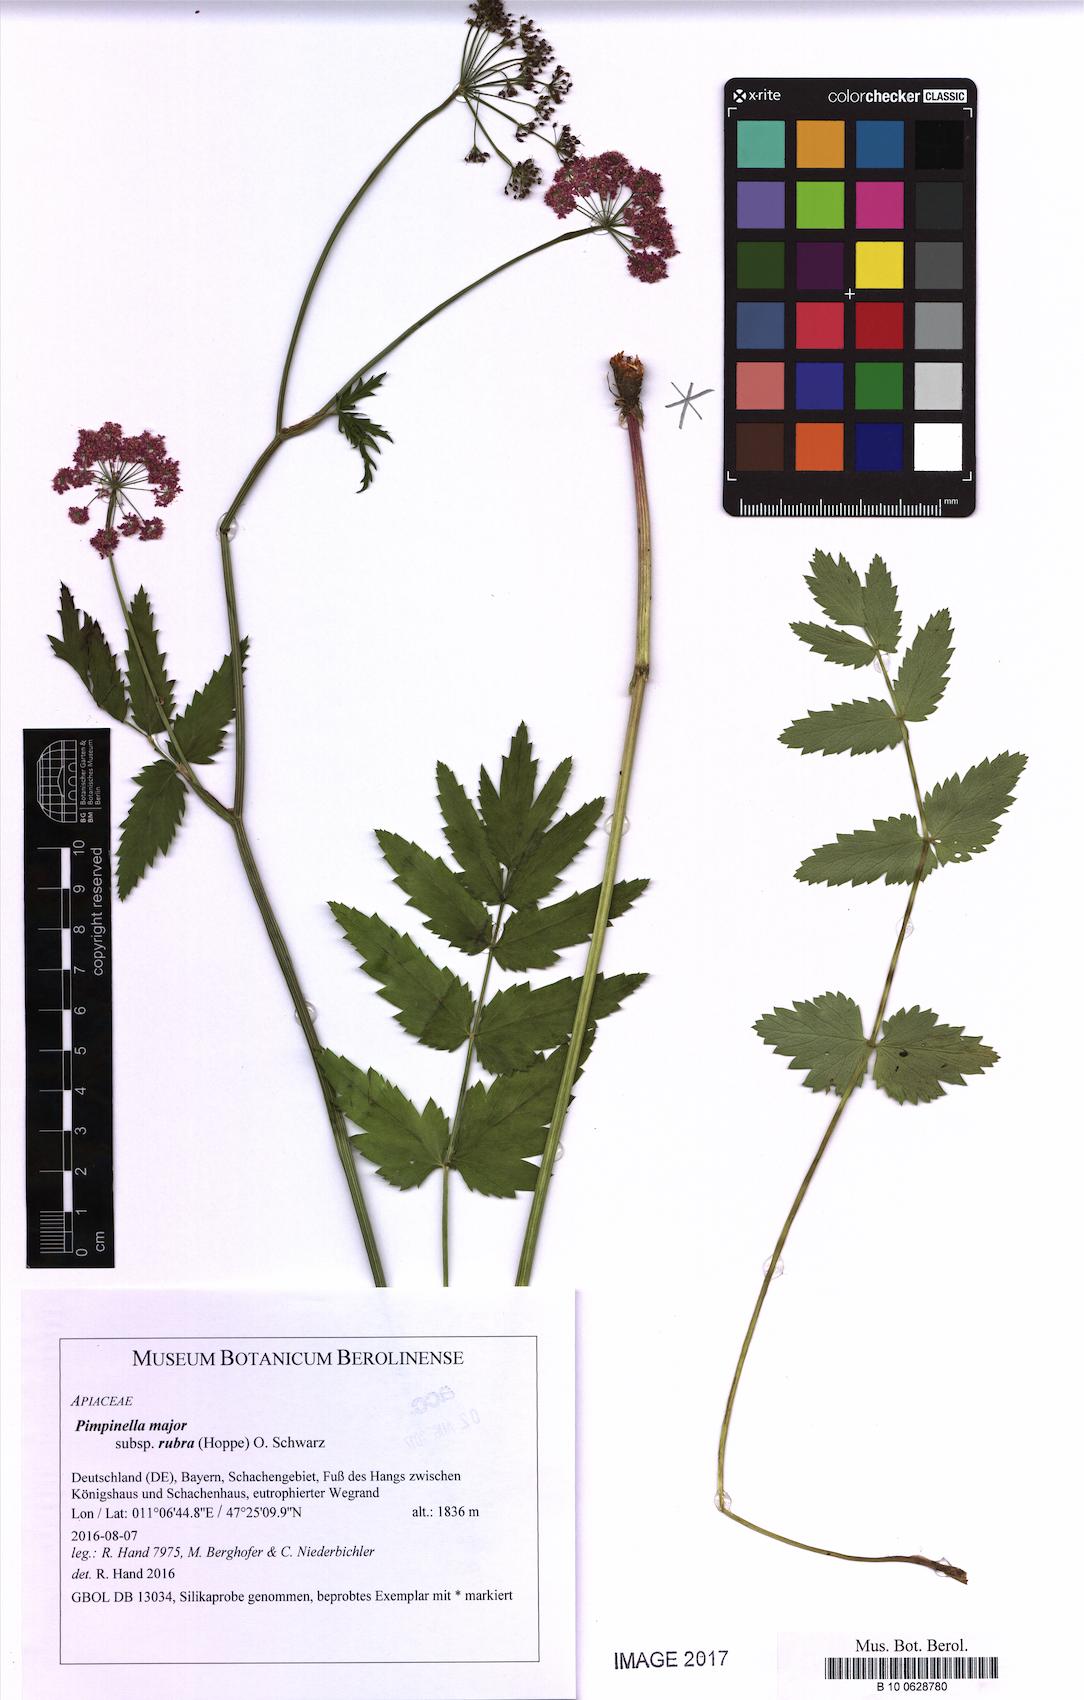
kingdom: Plantae
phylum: Tracheophyta
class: Magnoliopsida
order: Apiales
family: Apiaceae
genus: Pimpinella
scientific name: Pimpinella major
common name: Greater burnet-saxifrage
